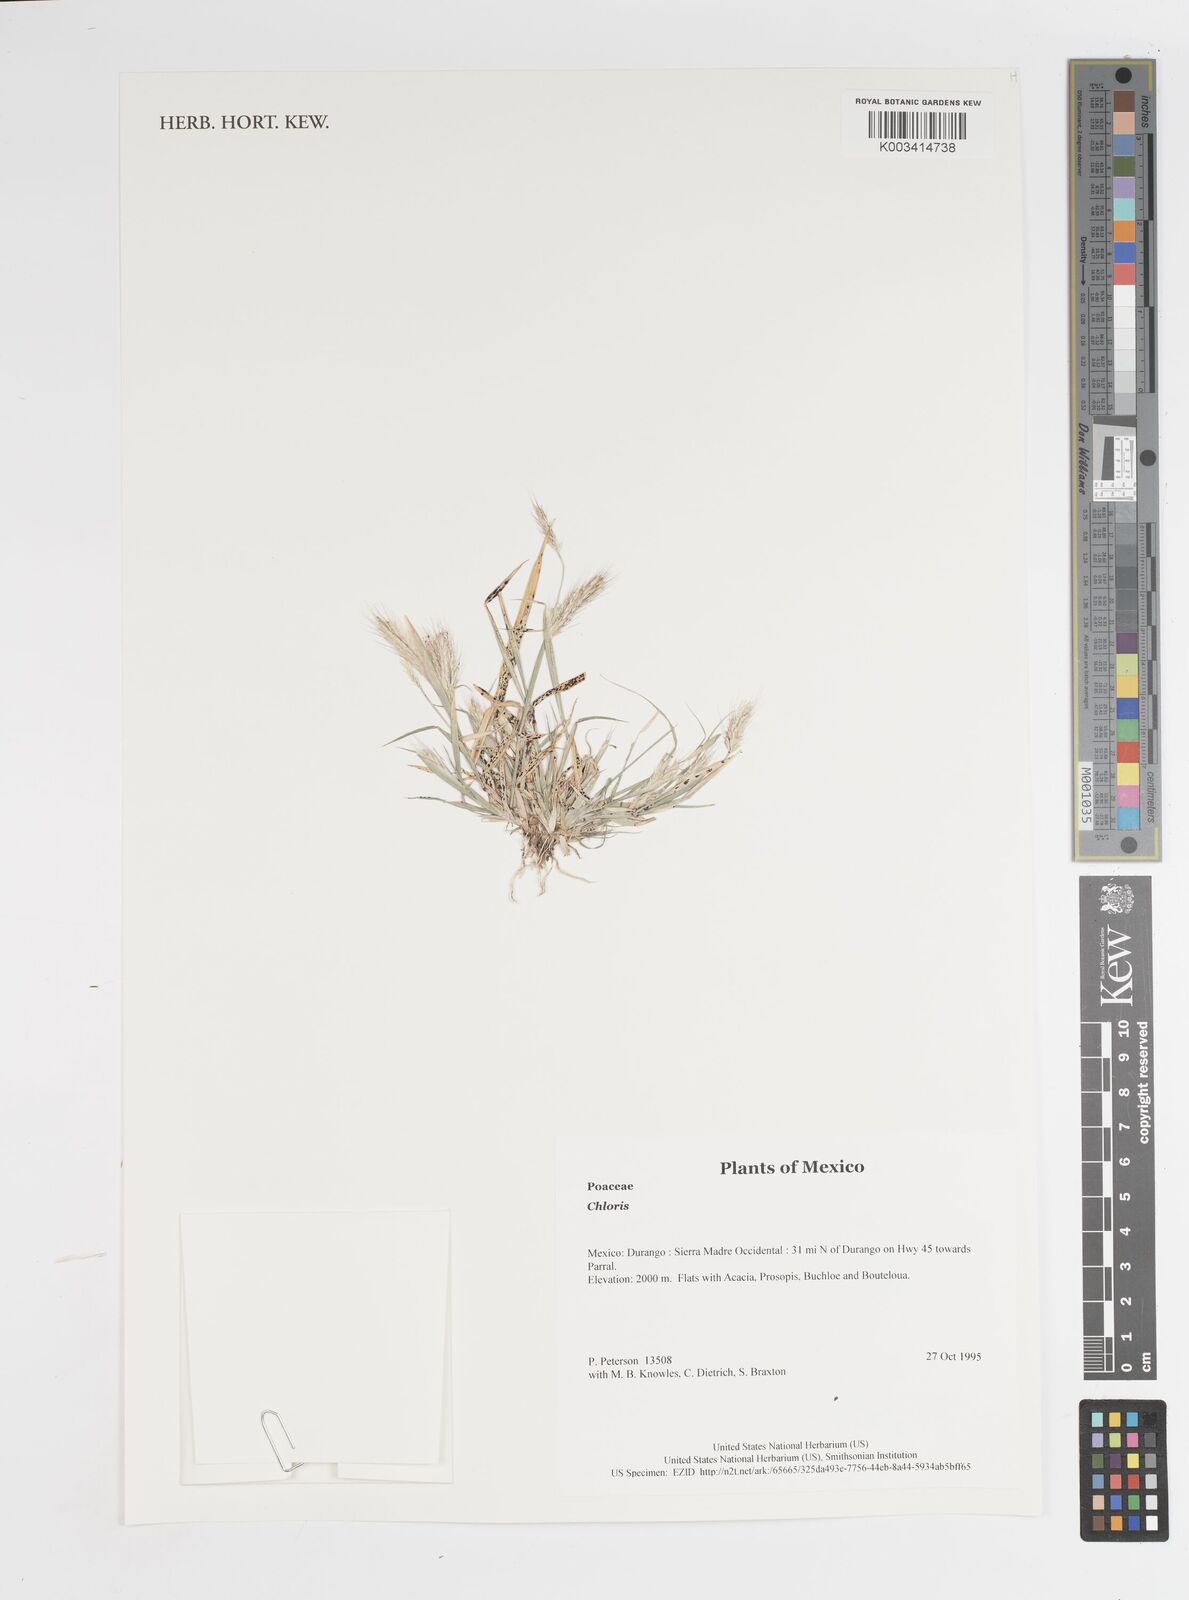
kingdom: Plantae
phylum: Tracheophyta
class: Liliopsida
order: Poales
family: Poaceae
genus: Chloris
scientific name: Chloris
